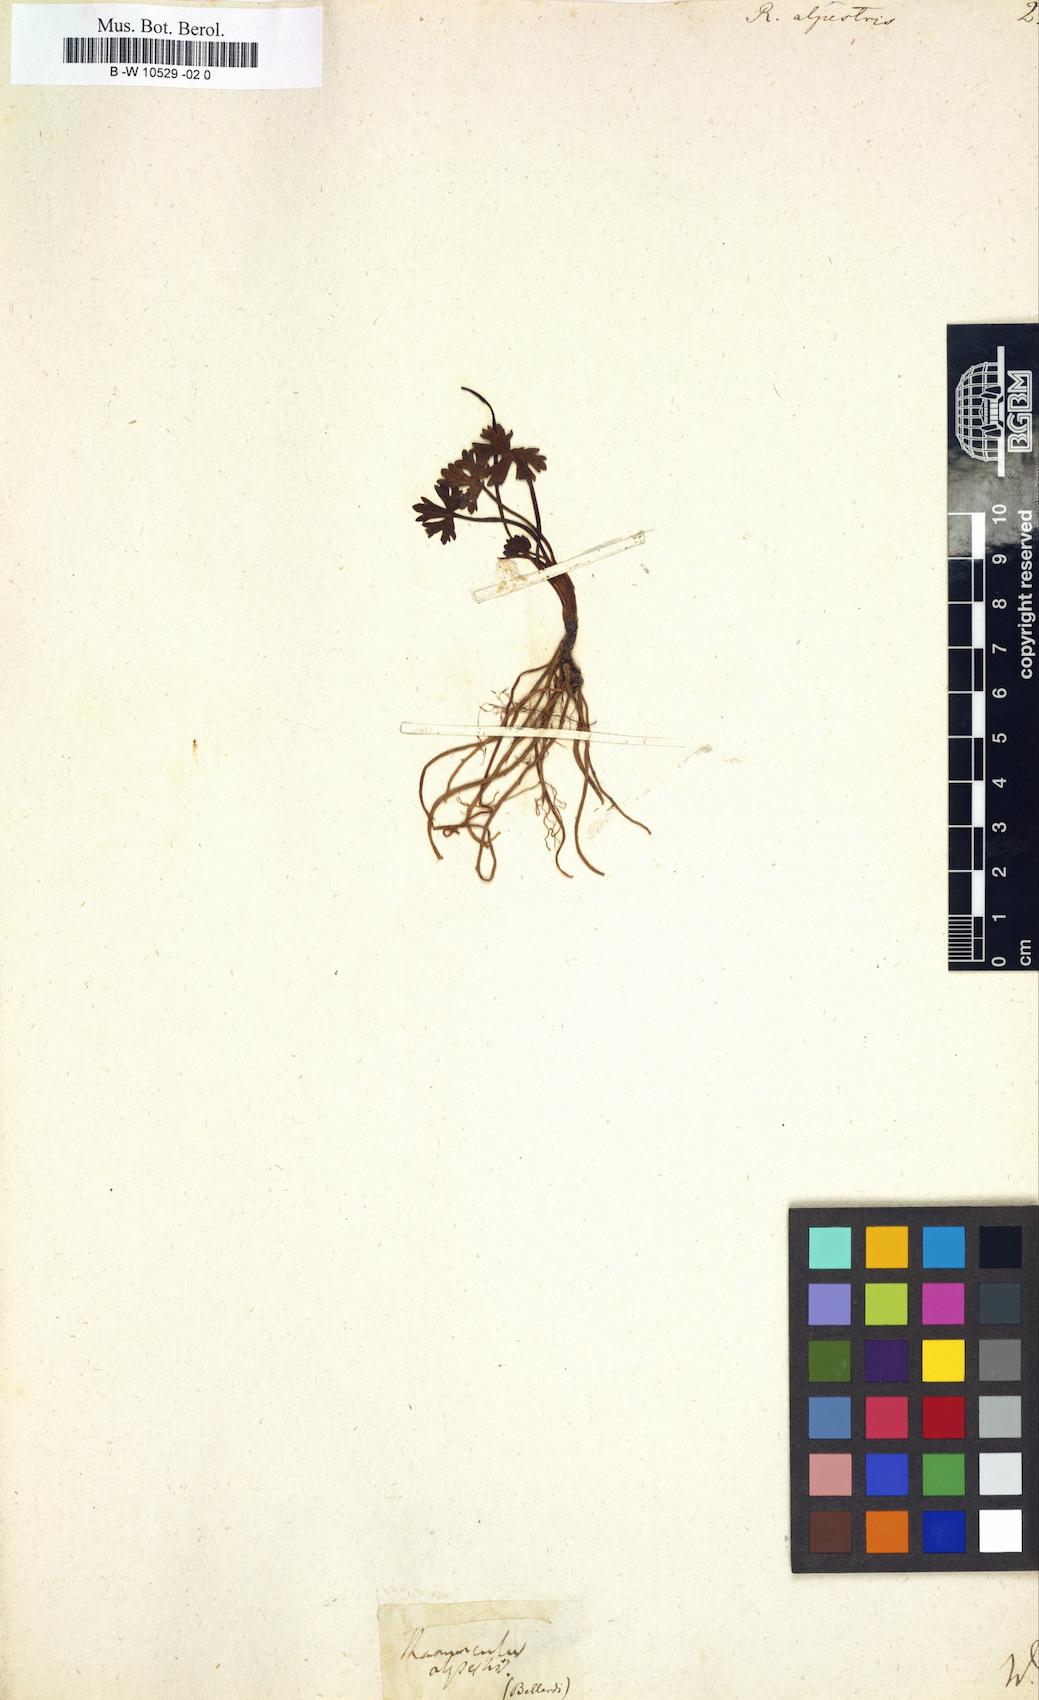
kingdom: Plantae
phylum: Tracheophyta
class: Magnoliopsida
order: Ranunculales
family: Ranunculaceae
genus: Ranunculus
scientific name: Ranunculus alpestris
